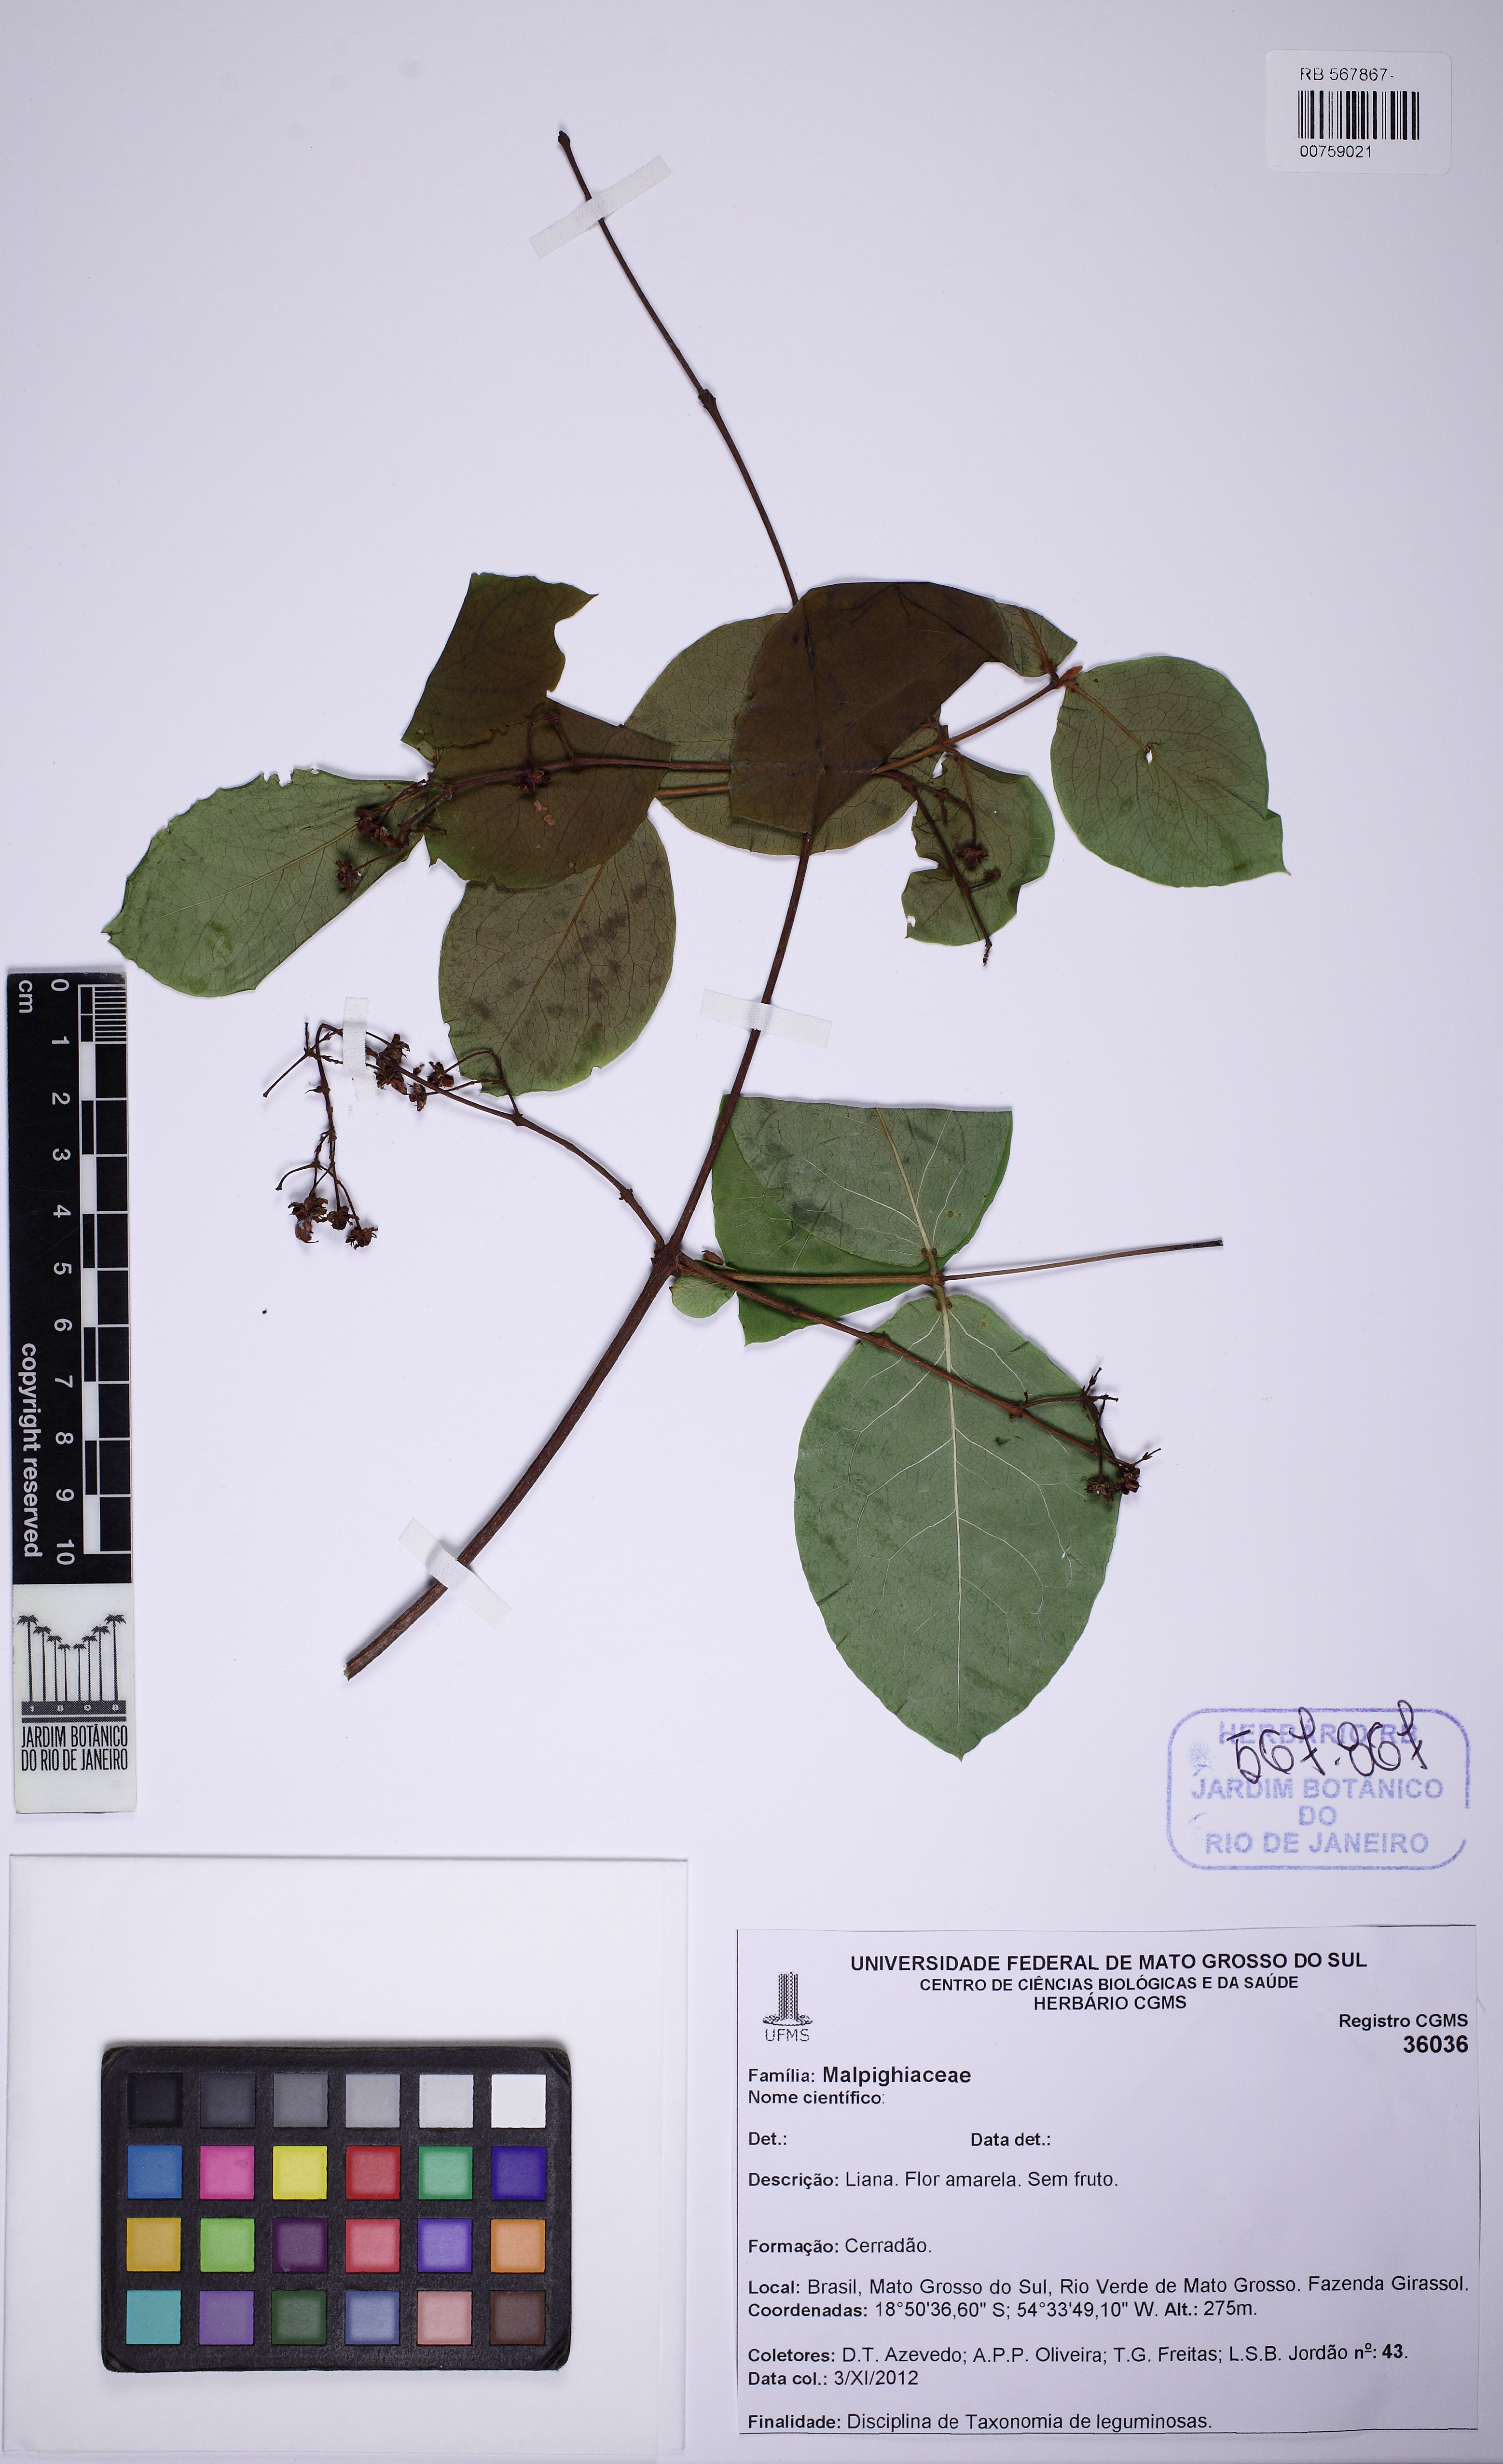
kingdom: Plantae
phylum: Tracheophyta
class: Magnoliopsida
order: Malpighiales
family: Malpighiaceae
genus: Heteropterys
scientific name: Heteropterys
